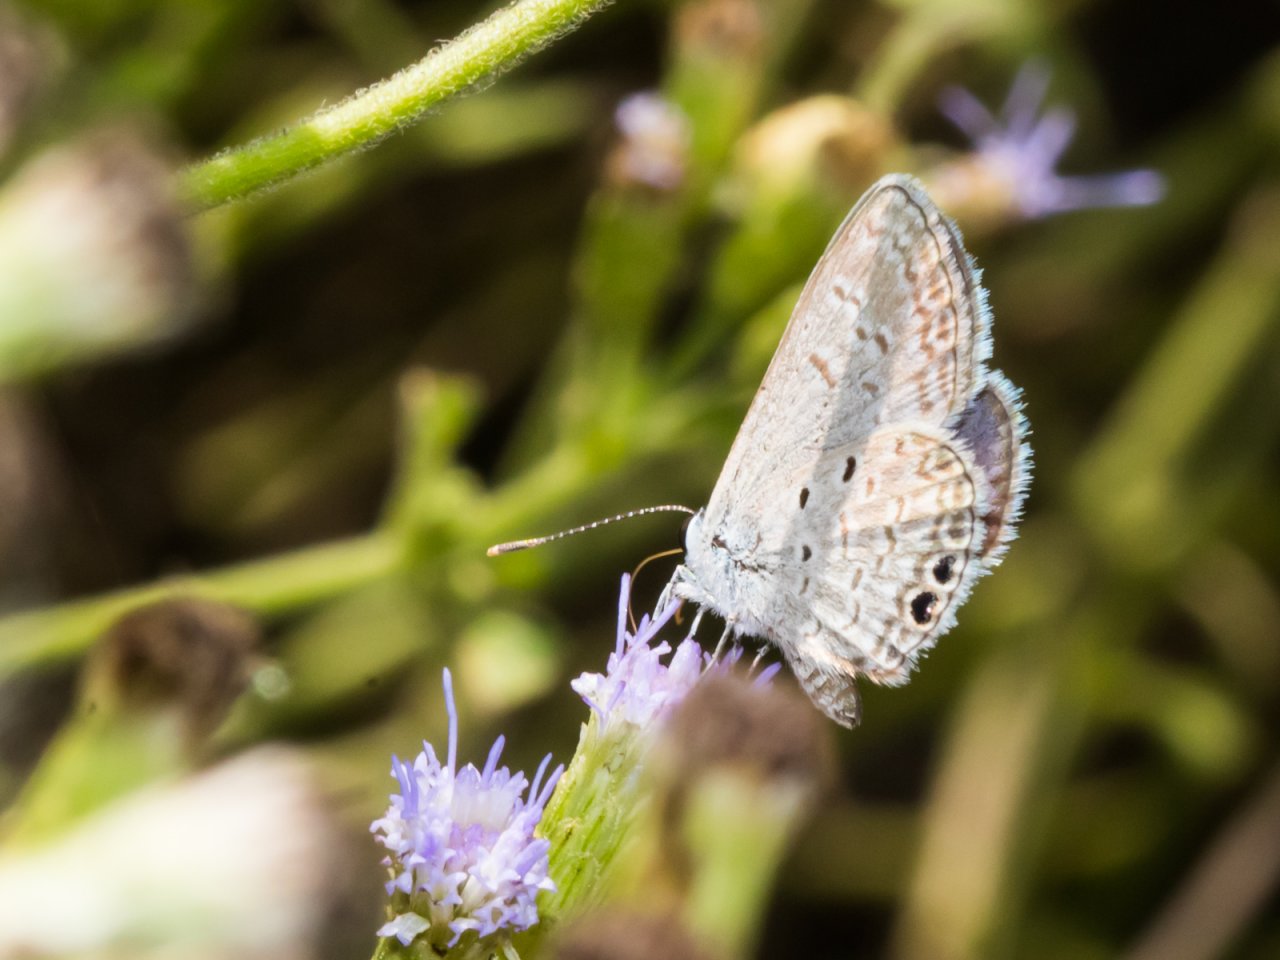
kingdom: Animalia
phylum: Arthropoda
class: Insecta
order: Lepidoptera
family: Lycaenidae
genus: Hemiargus
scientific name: Hemiargus ceraunus
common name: Ceraunus Blue
